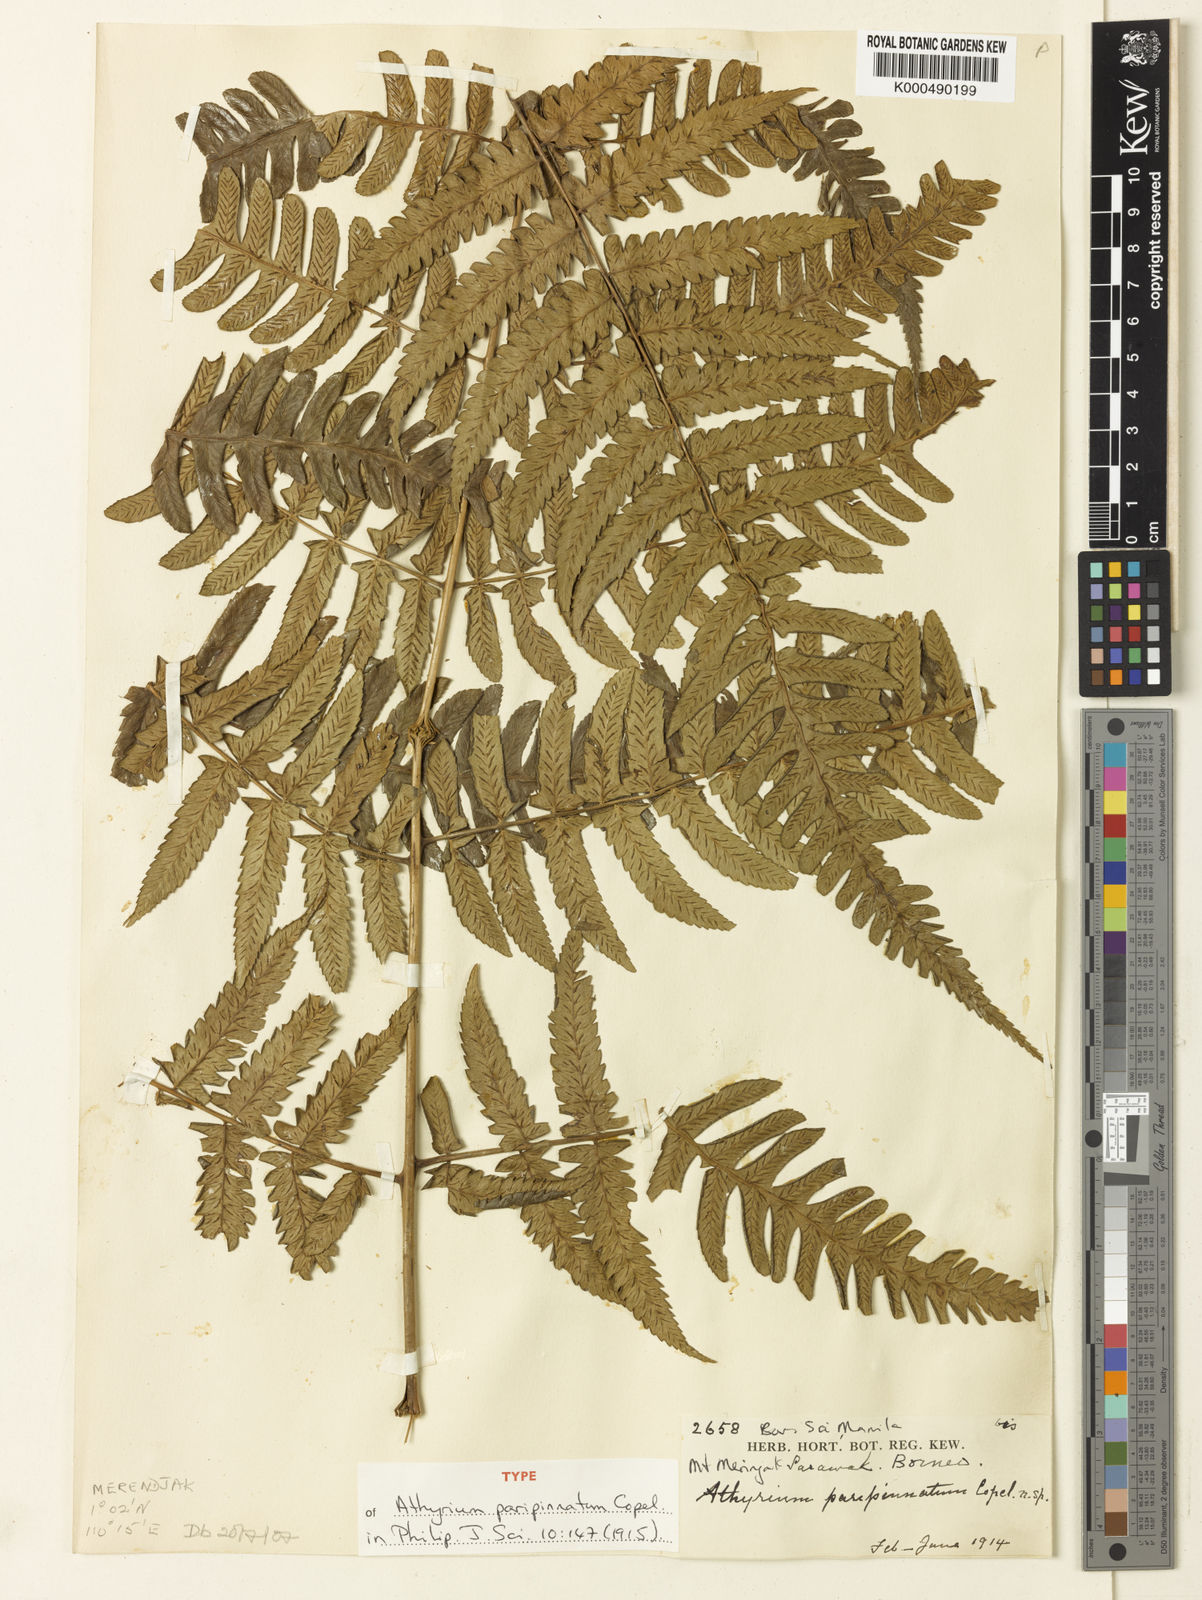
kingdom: Plantae
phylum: Tracheophyta
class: Polypodiopsida
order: Polypodiales
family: Athyriaceae
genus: Diplazium
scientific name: Diplazium hewittii
